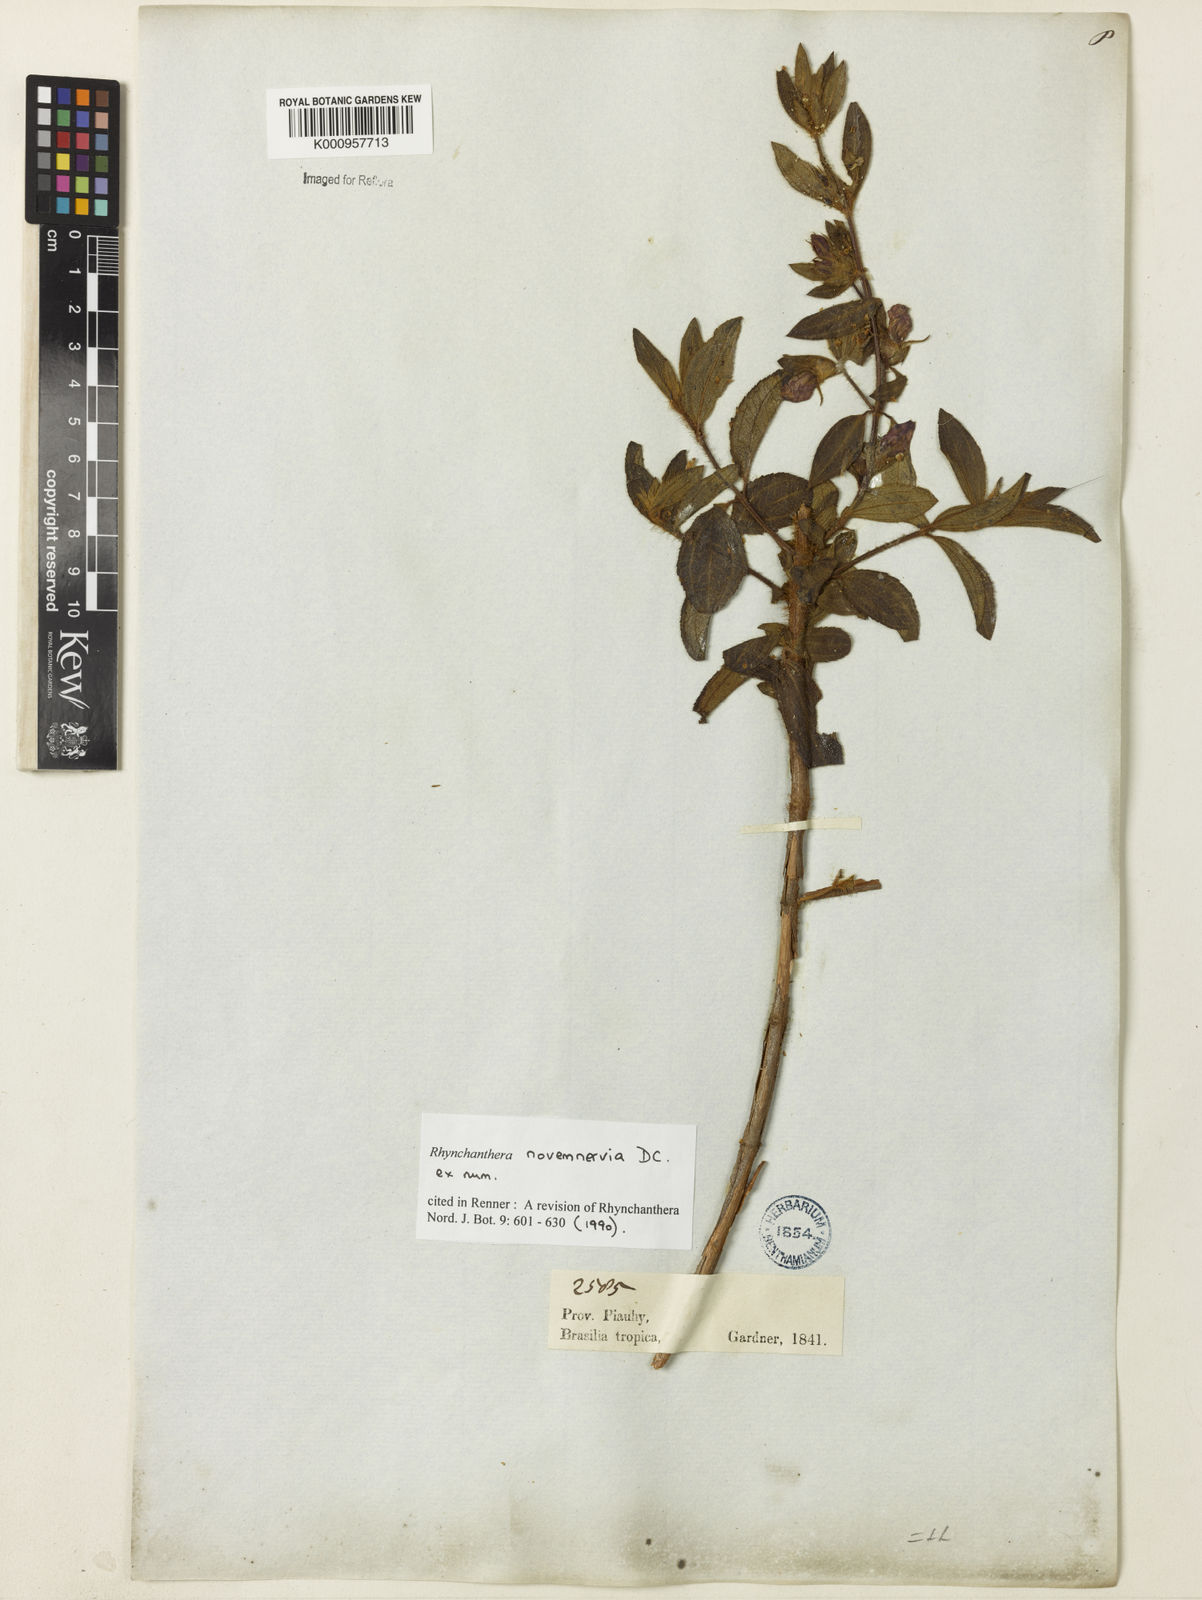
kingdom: Plantae
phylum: Tracheophyta
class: Magnoliopsida
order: Myrtales
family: Melastomataceae
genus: Rhynchanthera
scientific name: Rhynchanthera novemnervia
